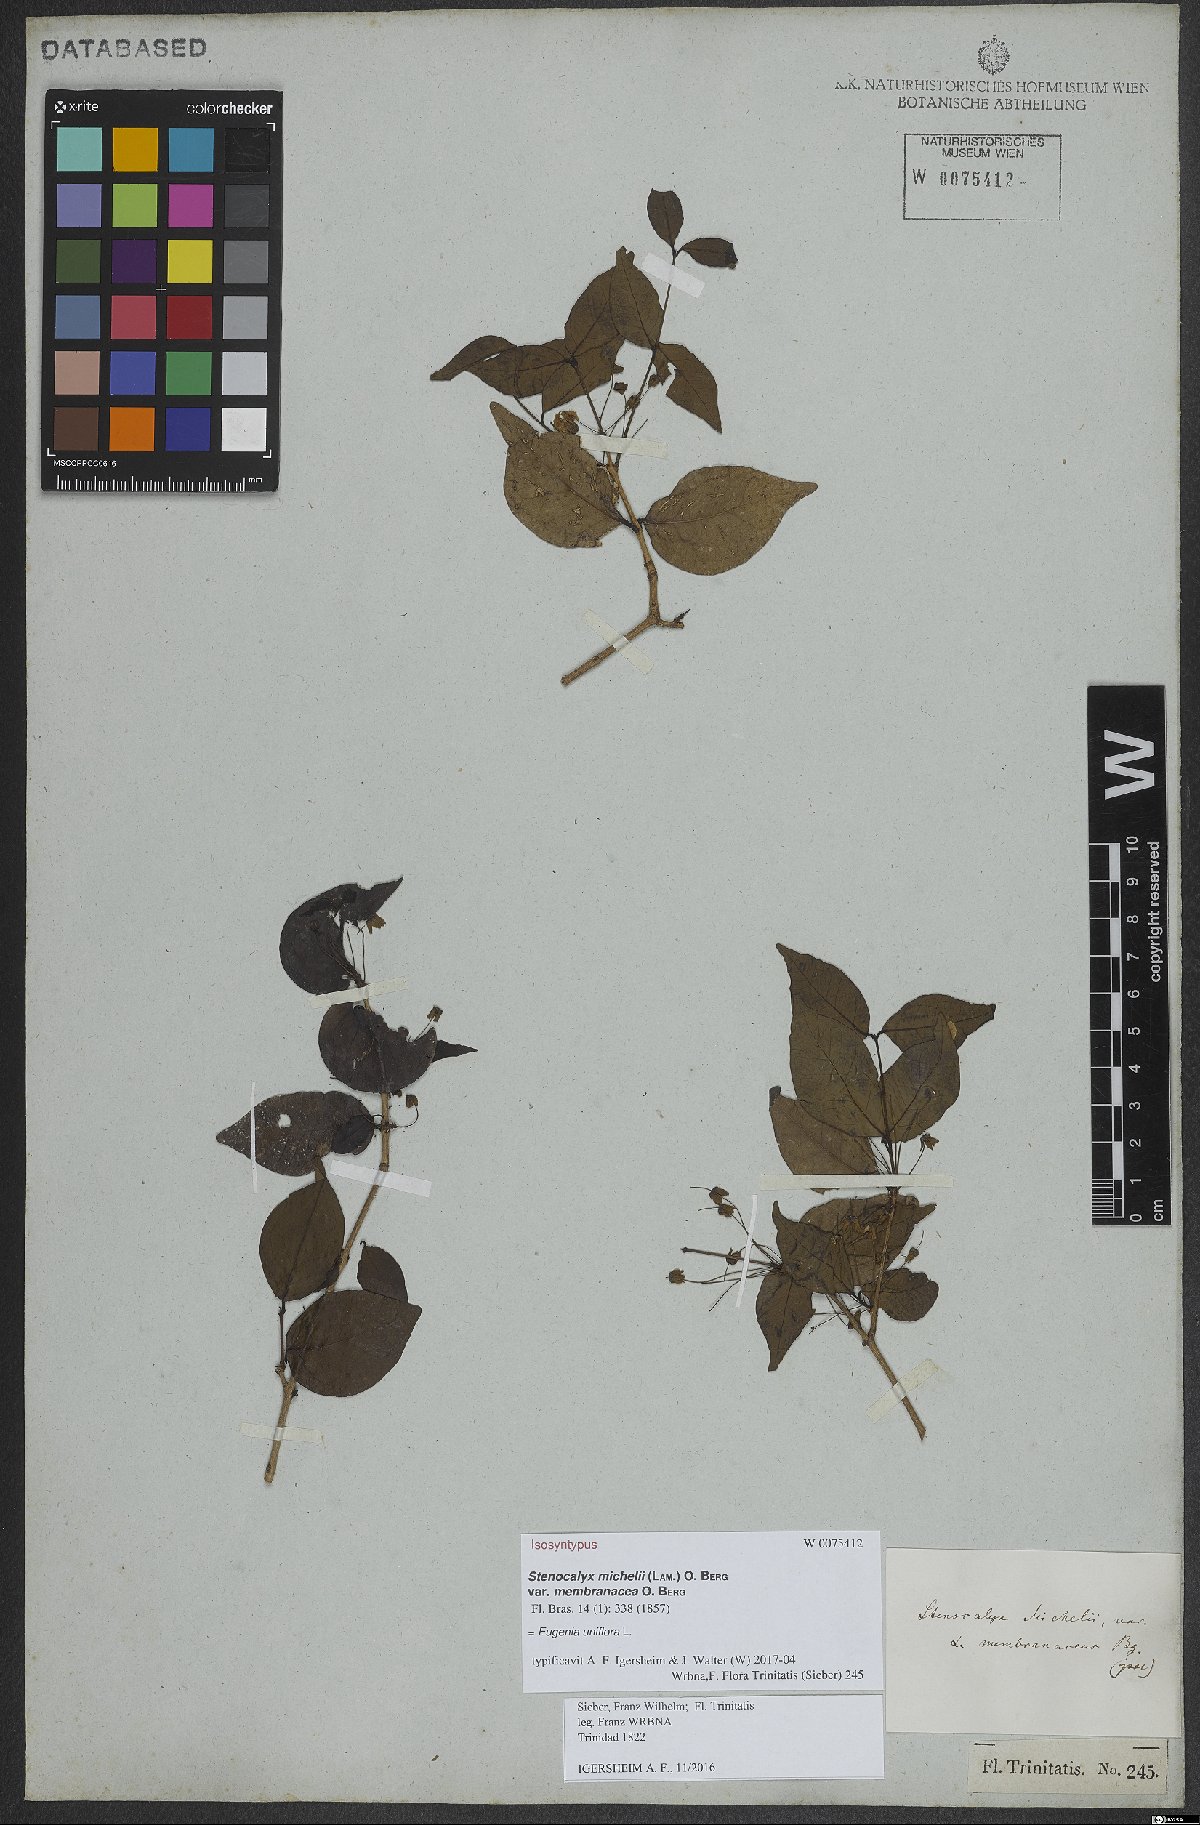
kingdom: Plantae
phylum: Tracheophyta
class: Magnoliopsida
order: Myrtales
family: Myrtaceae
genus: Eugenia
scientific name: Eugenia uniflora
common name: Surinam cherry
